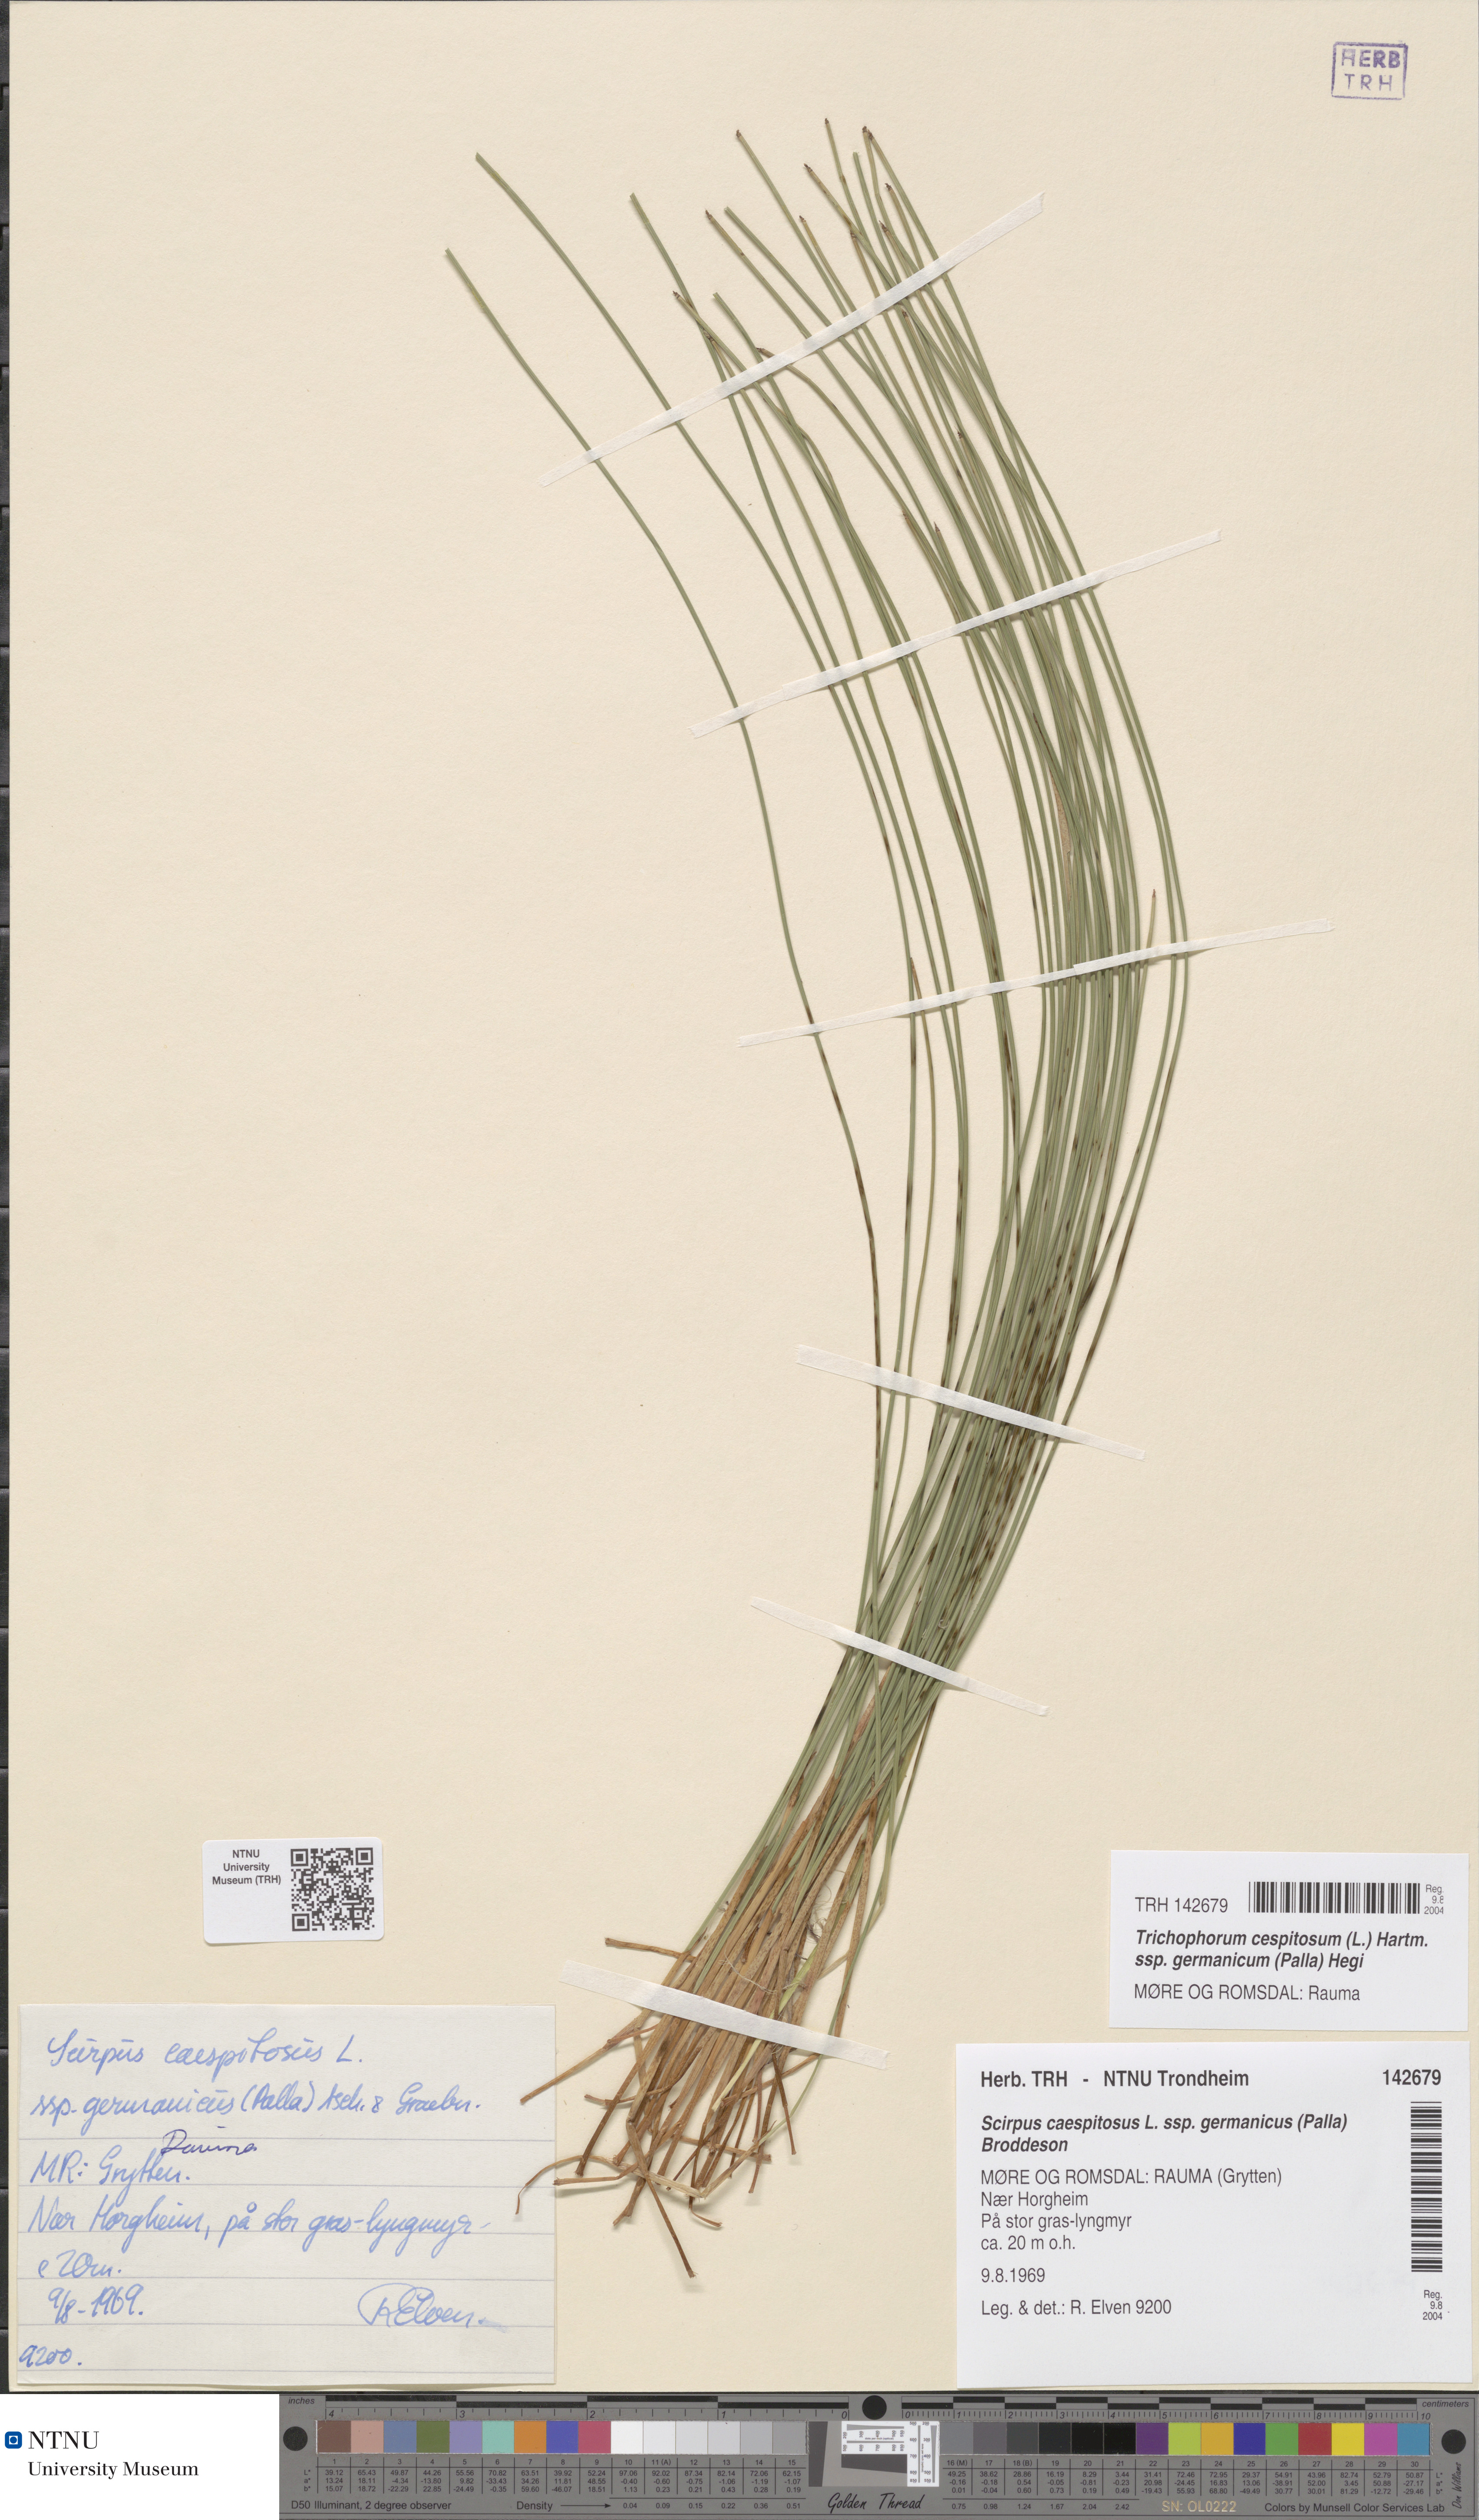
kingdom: Plantae
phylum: Tracheophyta
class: Liliopsida
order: Poales
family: Cyperaceae
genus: Trichophorum
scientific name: Trichophorum cespitosum
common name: Cespitose bulrush
